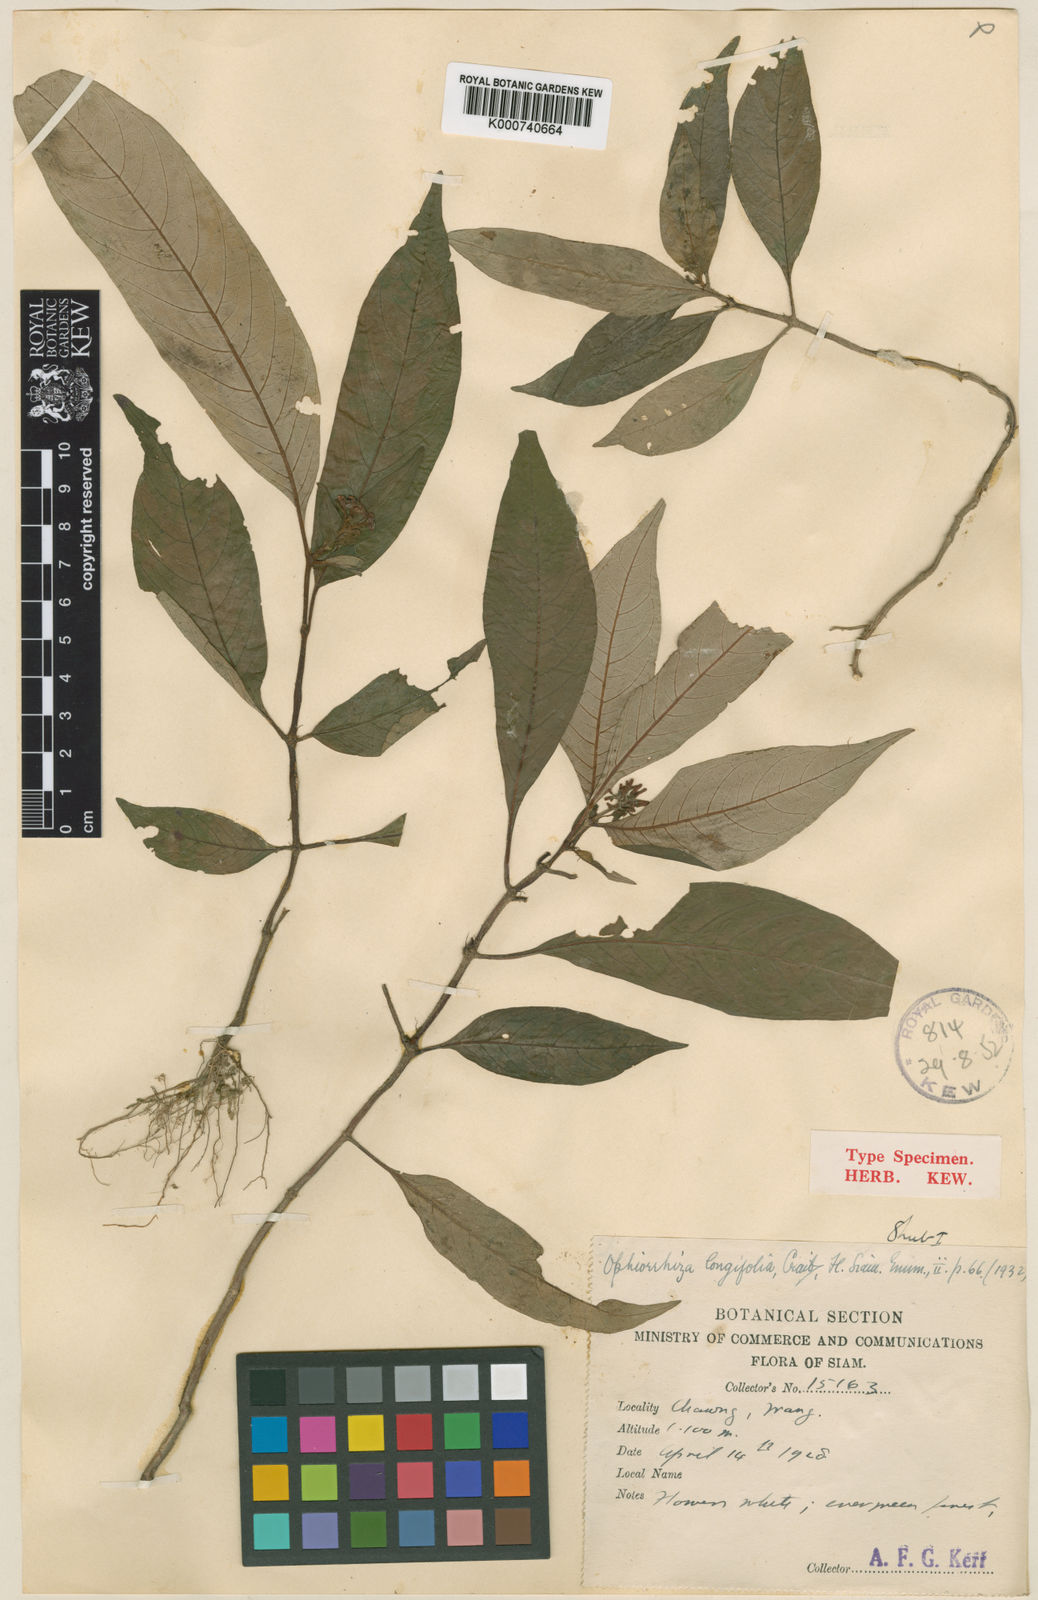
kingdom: Plantae
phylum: Tracheophyta
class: Magnoliopsida
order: Gentianales
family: Rubiaceae
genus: Ophiorrhiza
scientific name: Ophiorrhiza erubescens
